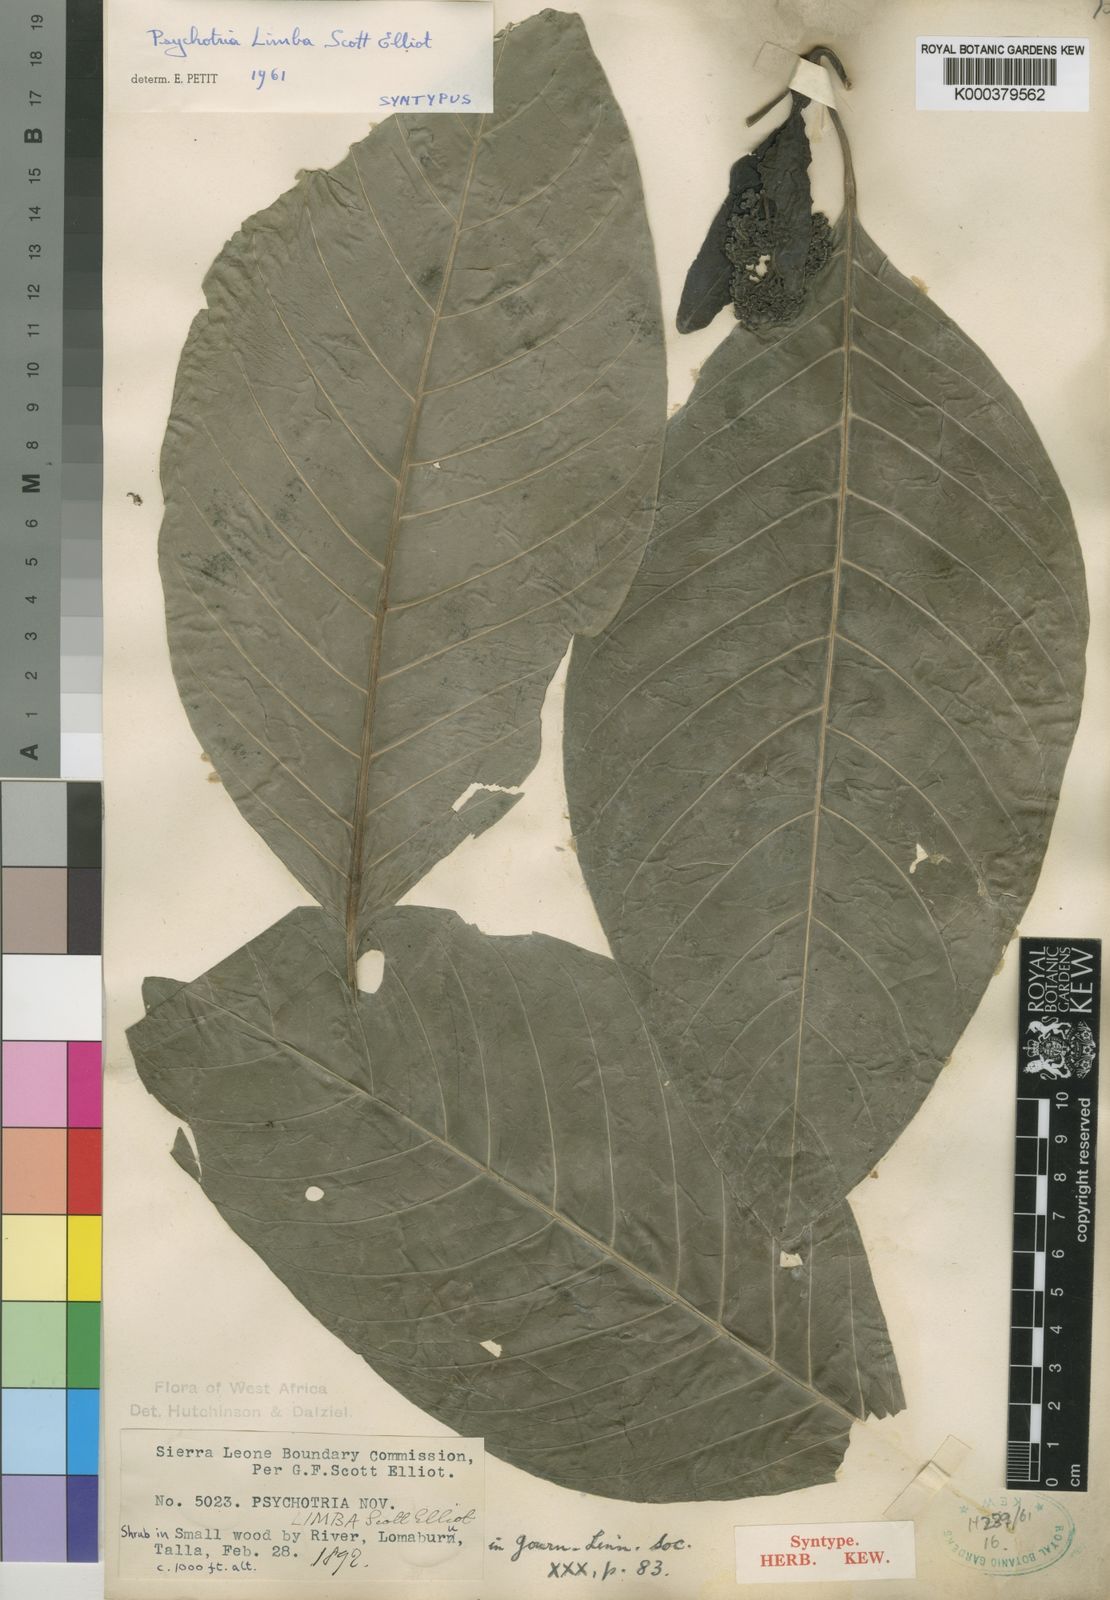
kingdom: Plantae
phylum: Tracheophyta
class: Magnoliopsida
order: Gentianales
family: Rubiaceae
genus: Psychotria
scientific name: Psychotria limba
